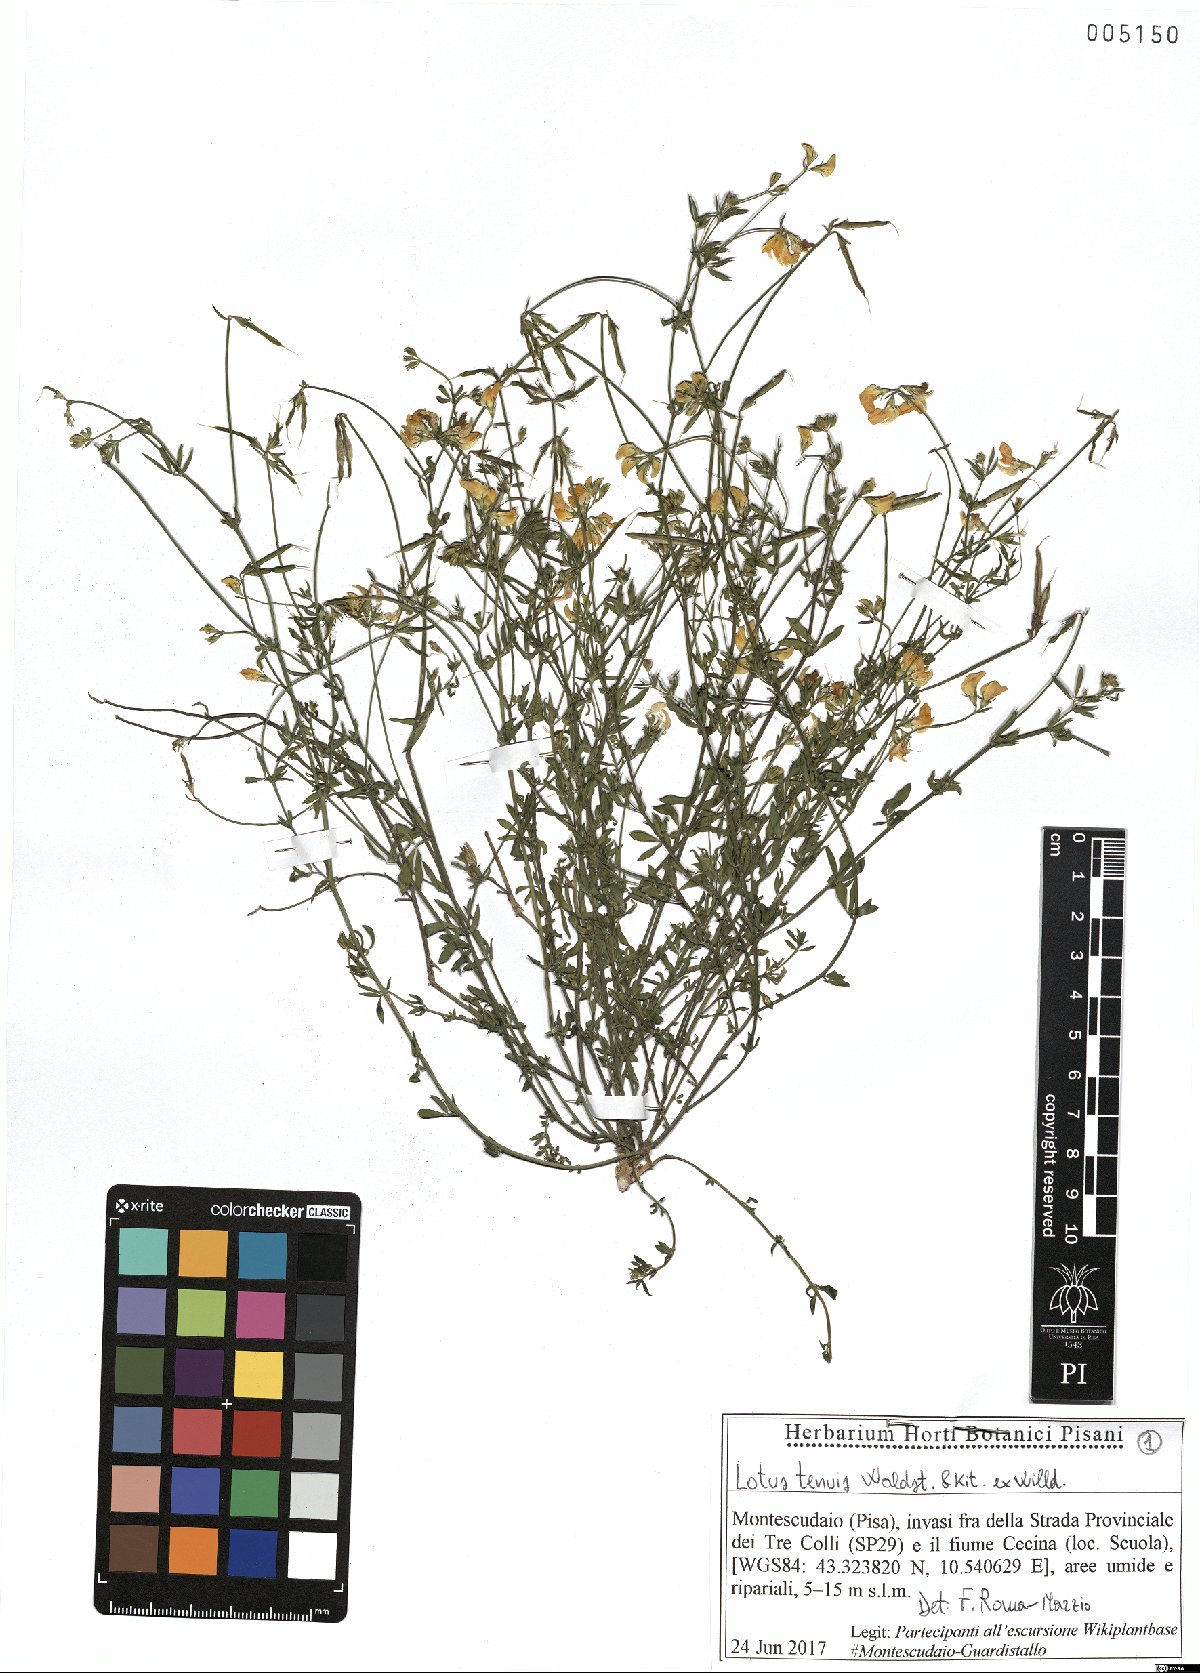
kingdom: Plantae
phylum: Tracheophyta
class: Magnoliopsida
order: Fabales
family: Fabaceae
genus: Lotus
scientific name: Lotus tenuis
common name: Narrow-leaved bird's-foot-trefoil
